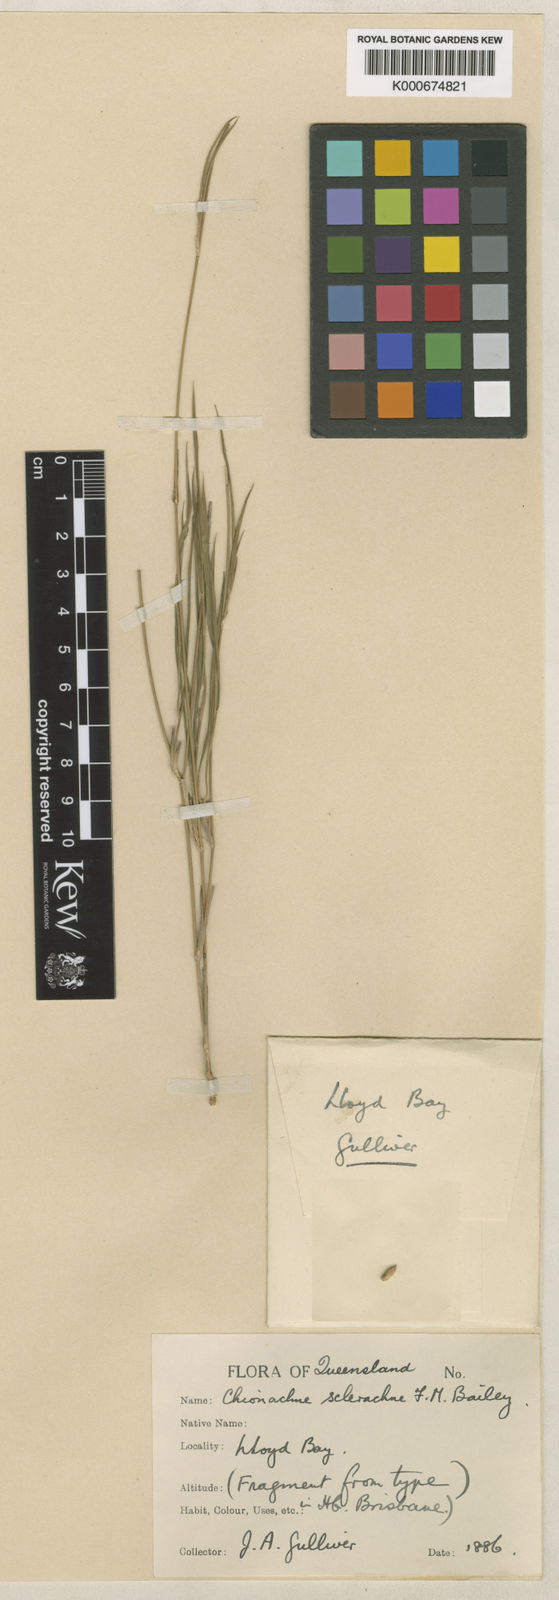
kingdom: Plantae
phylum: Tracheophyta
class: Liliopsida
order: Poales
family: Poaceae
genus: Cleistochloa
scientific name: Cleistochloa sclerachne
